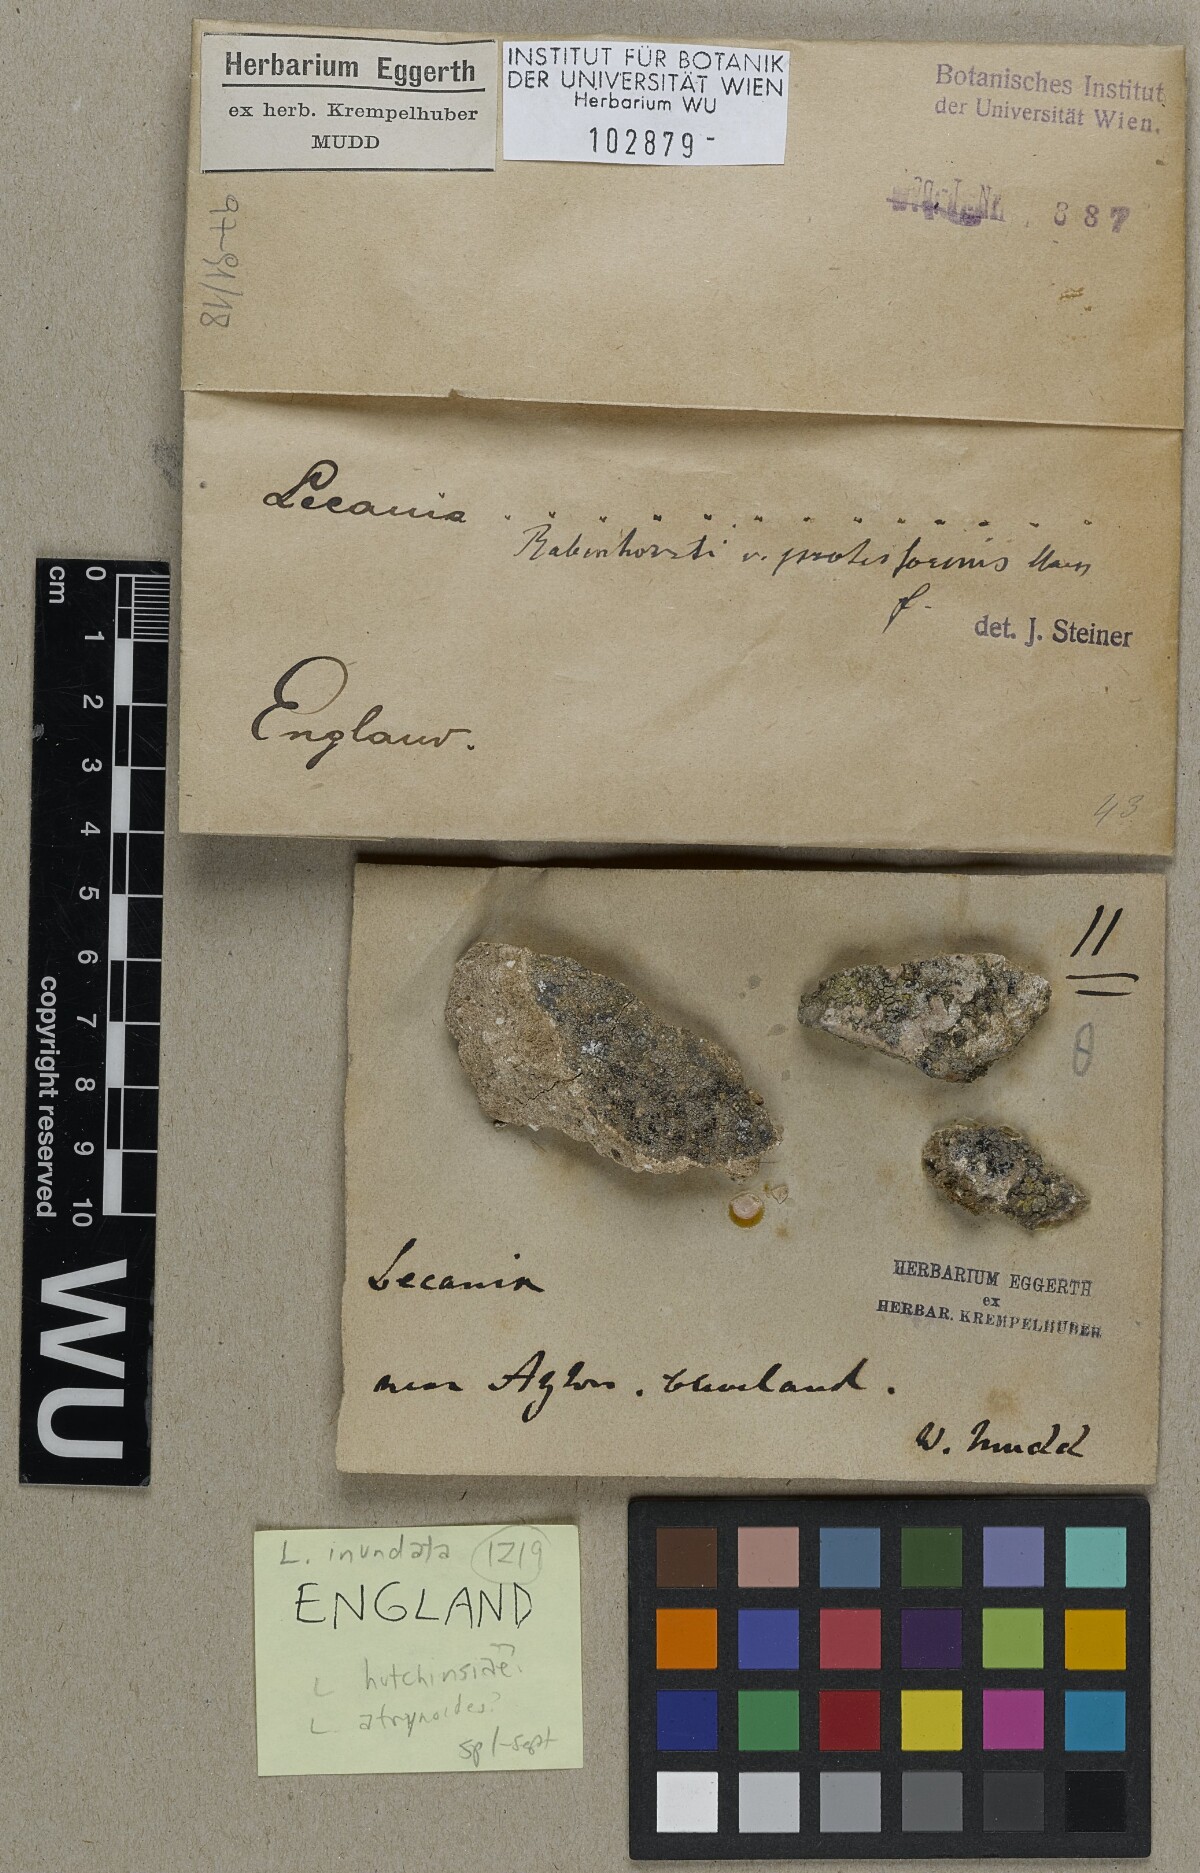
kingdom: Fungi
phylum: Ascomycota
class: Lecanoromycetes
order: Lecanorales
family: Ramalinaceae
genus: Lecania
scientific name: Lecania inundata
